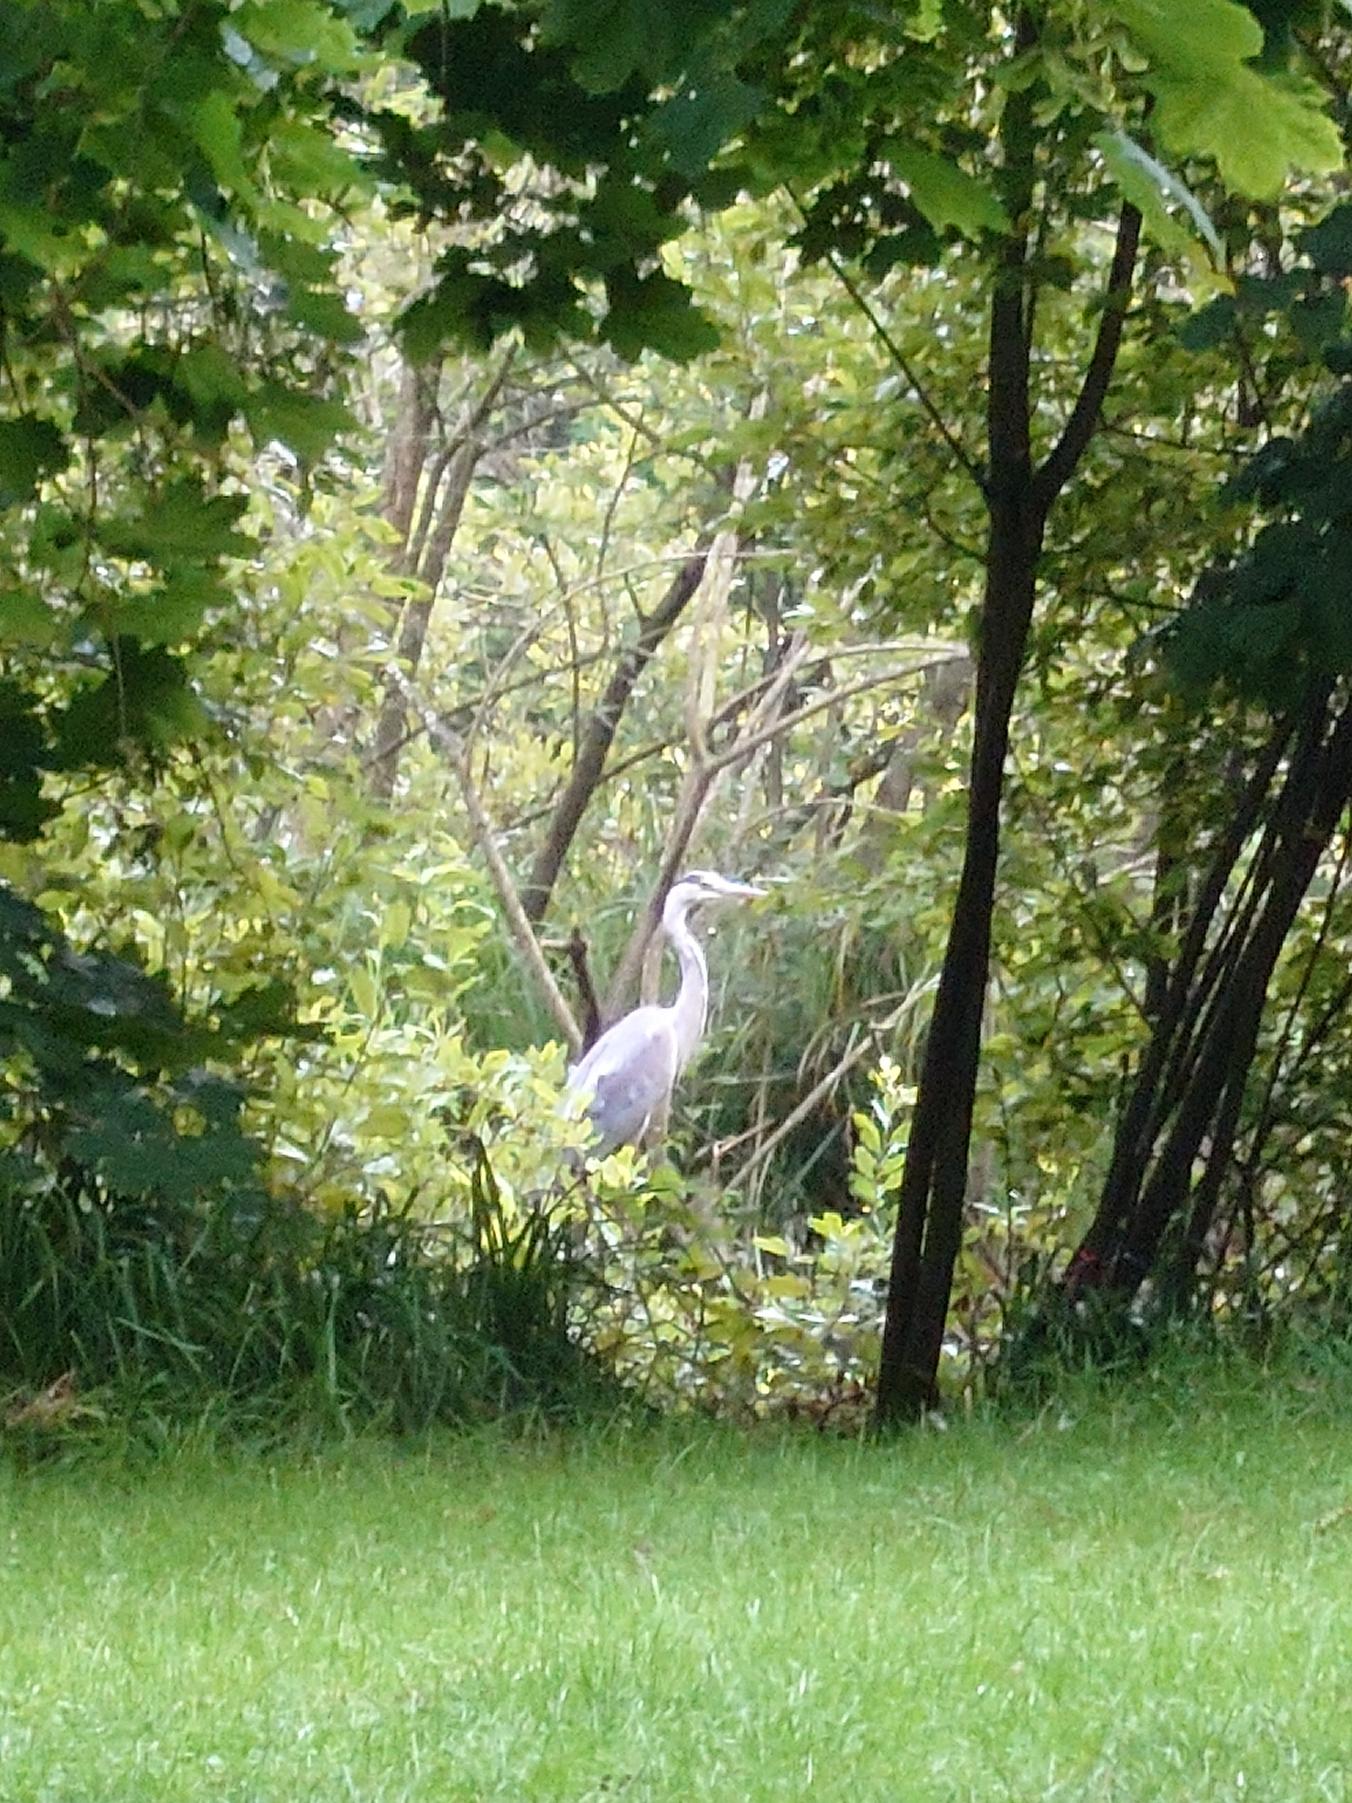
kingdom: Animalia
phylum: Chordata
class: Aves
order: Pelecaniformes
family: Ardeidae
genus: Ardea
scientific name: Ardea cinerea
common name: Fiskehejre
